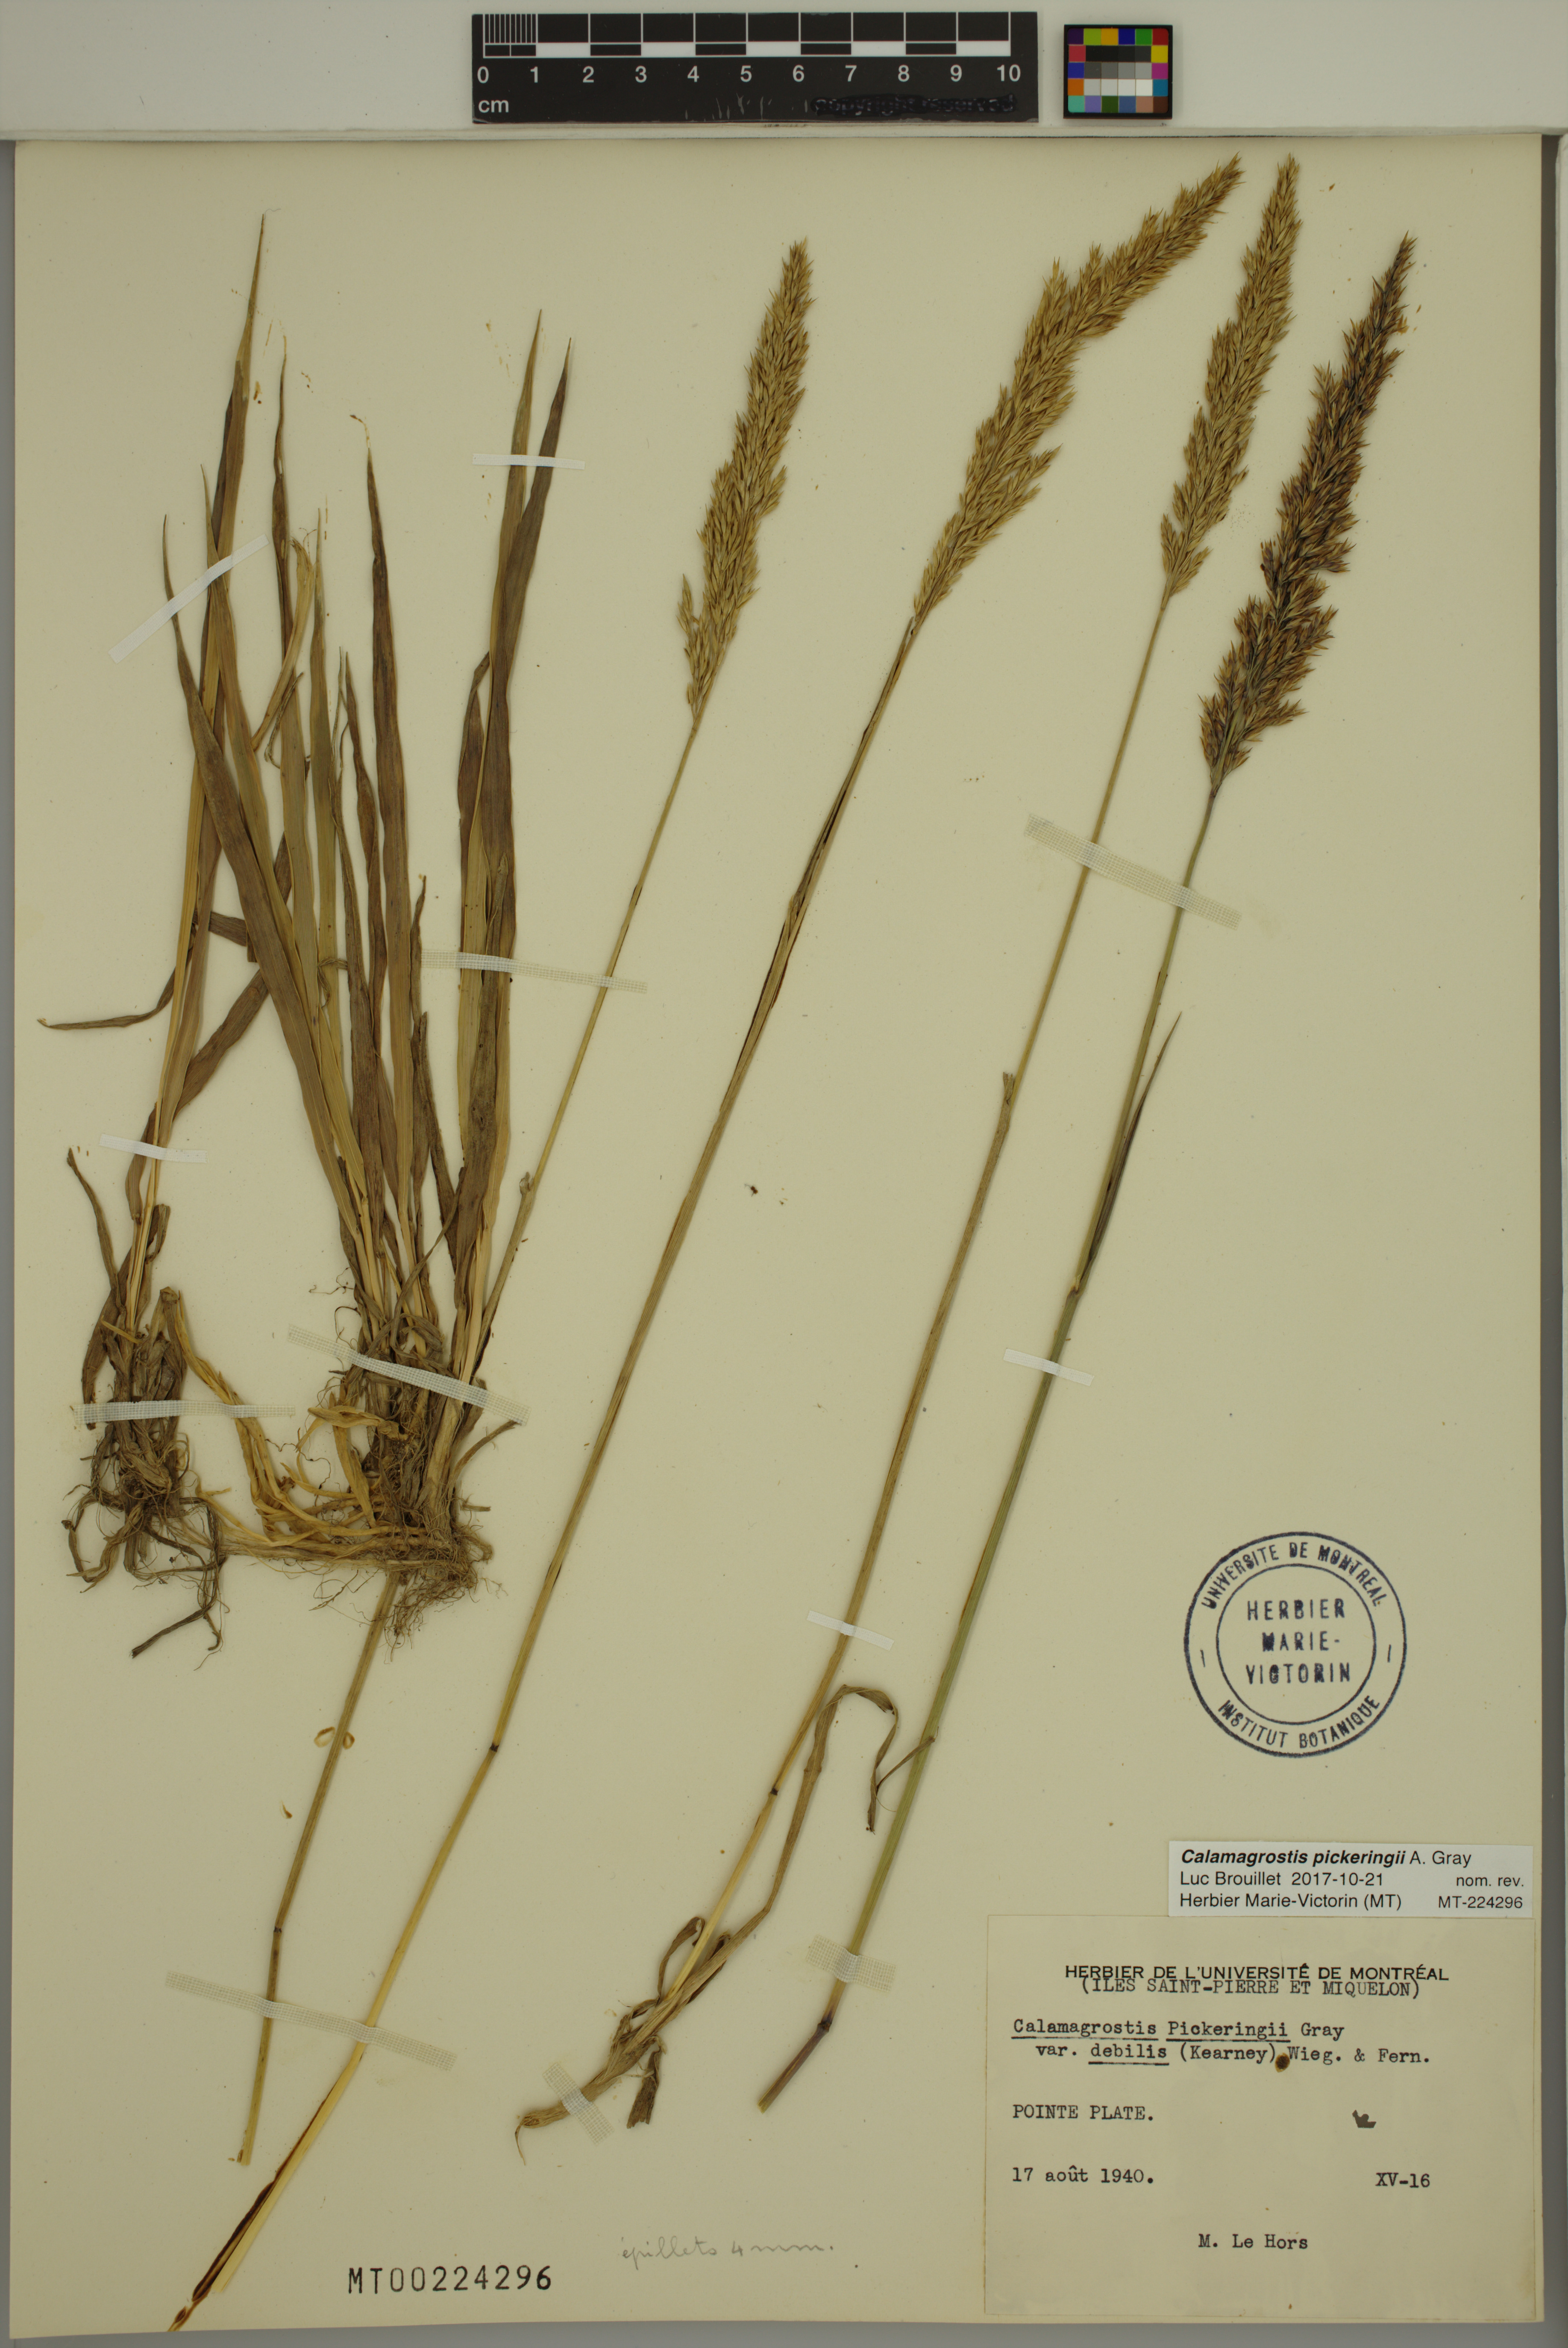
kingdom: Plantae
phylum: Tracheophyta
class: Liliopsida
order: Poales
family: Poaceae
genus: Calamagrostis
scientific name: Calamagrostis pickeringii
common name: Pickering's reed bentgrass
